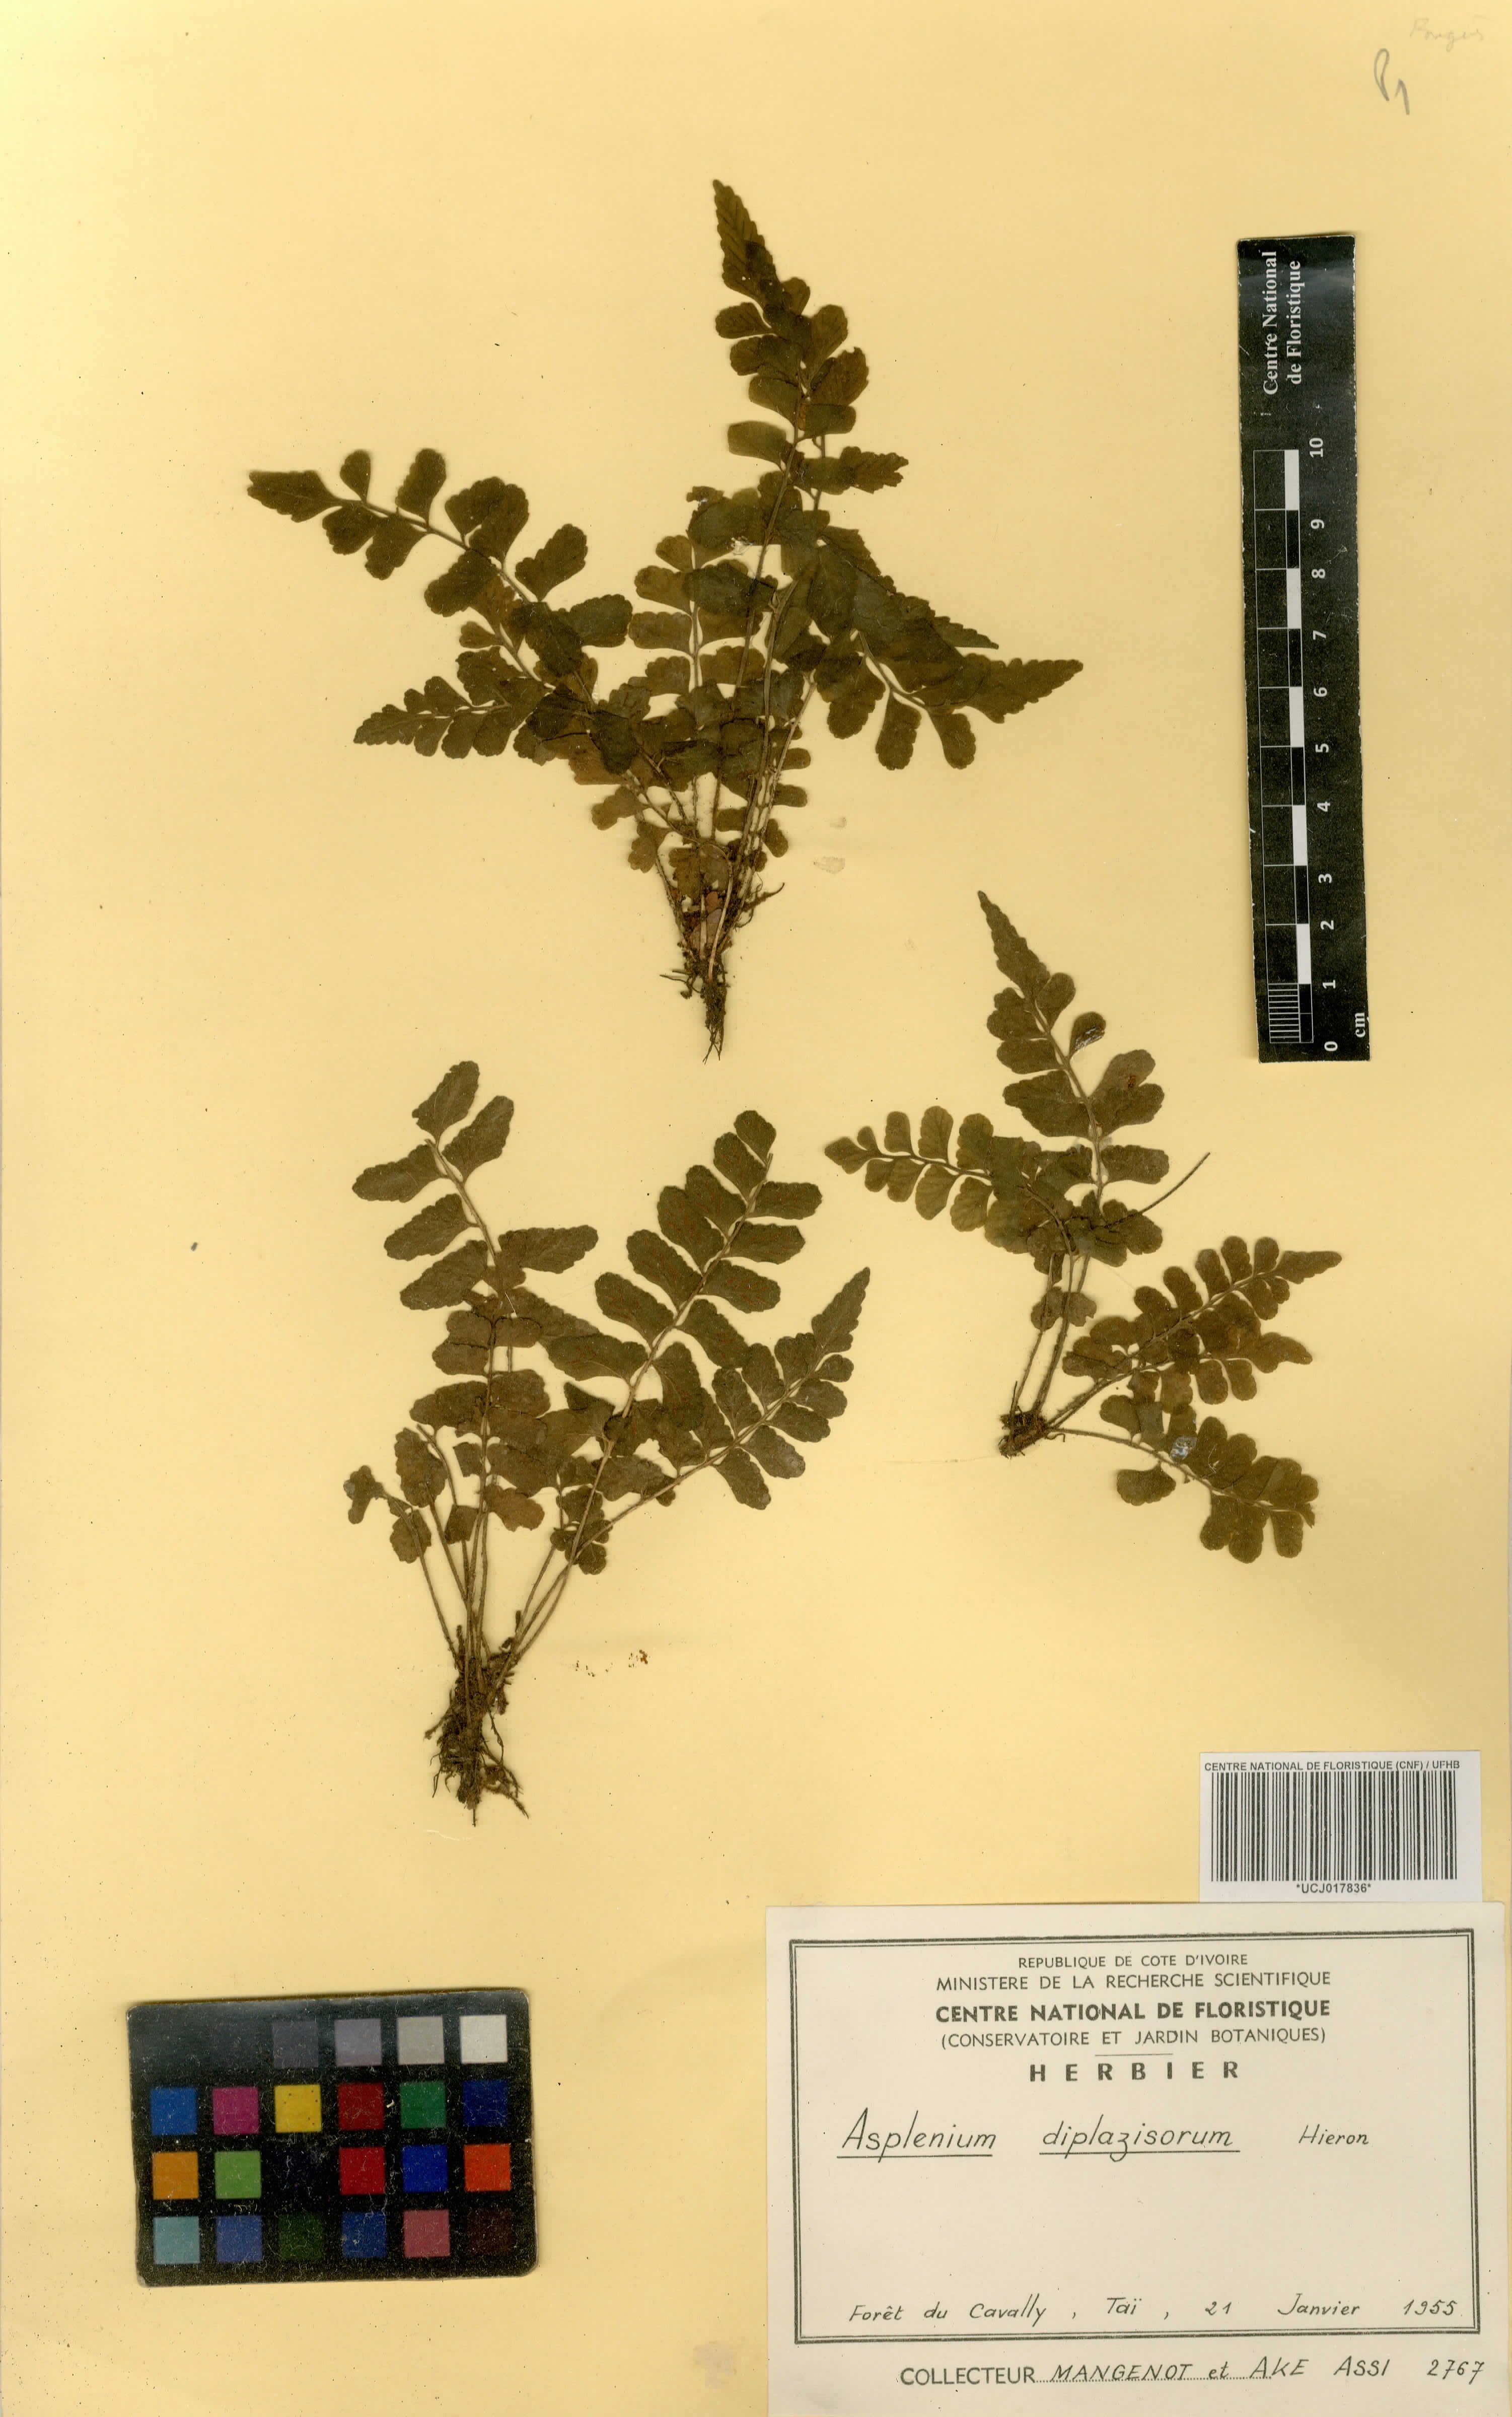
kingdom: Plantae
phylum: Tracheophyta
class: Polypodiopsida
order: Polypodiales
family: Aspleniaceae
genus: Asplenium
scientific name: Asplenium diplazisorum
